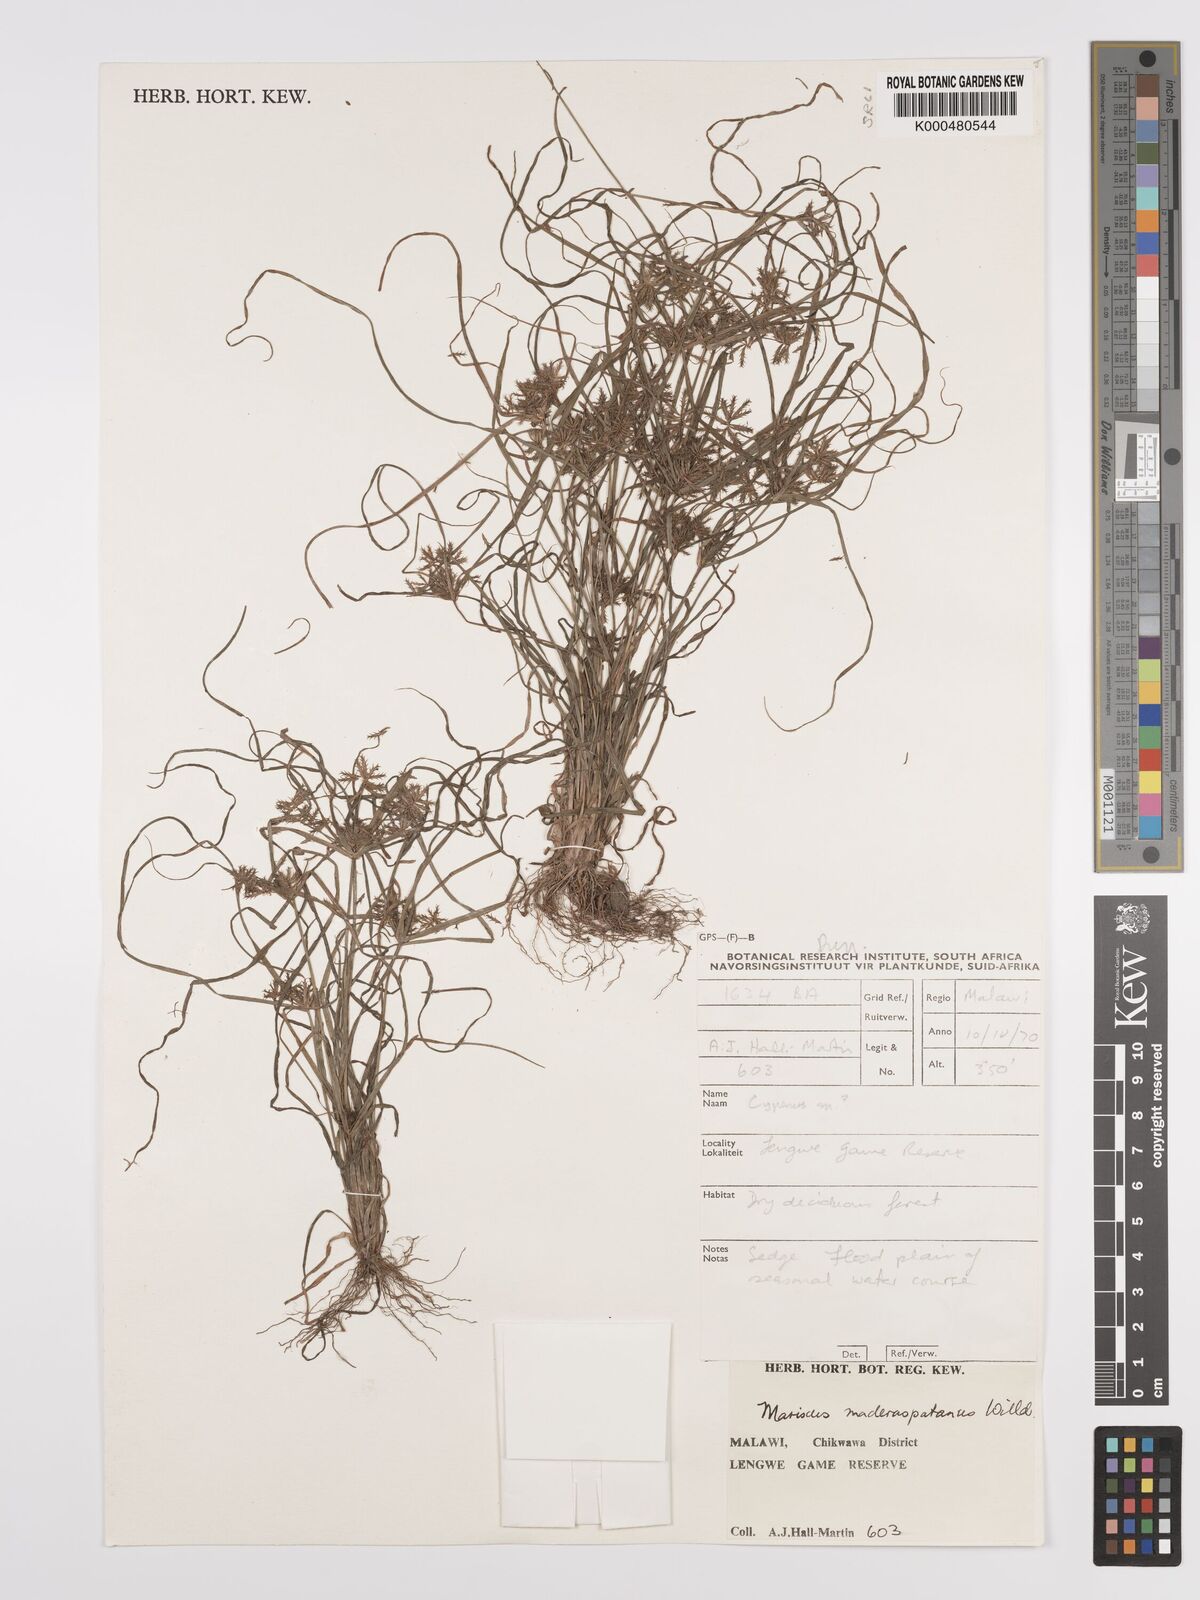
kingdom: Plantae
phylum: Tracheophyta
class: Liliopsida
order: Poales
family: Cyperaceae
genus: Cyperus
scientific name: Cyperus maderaspatanus
